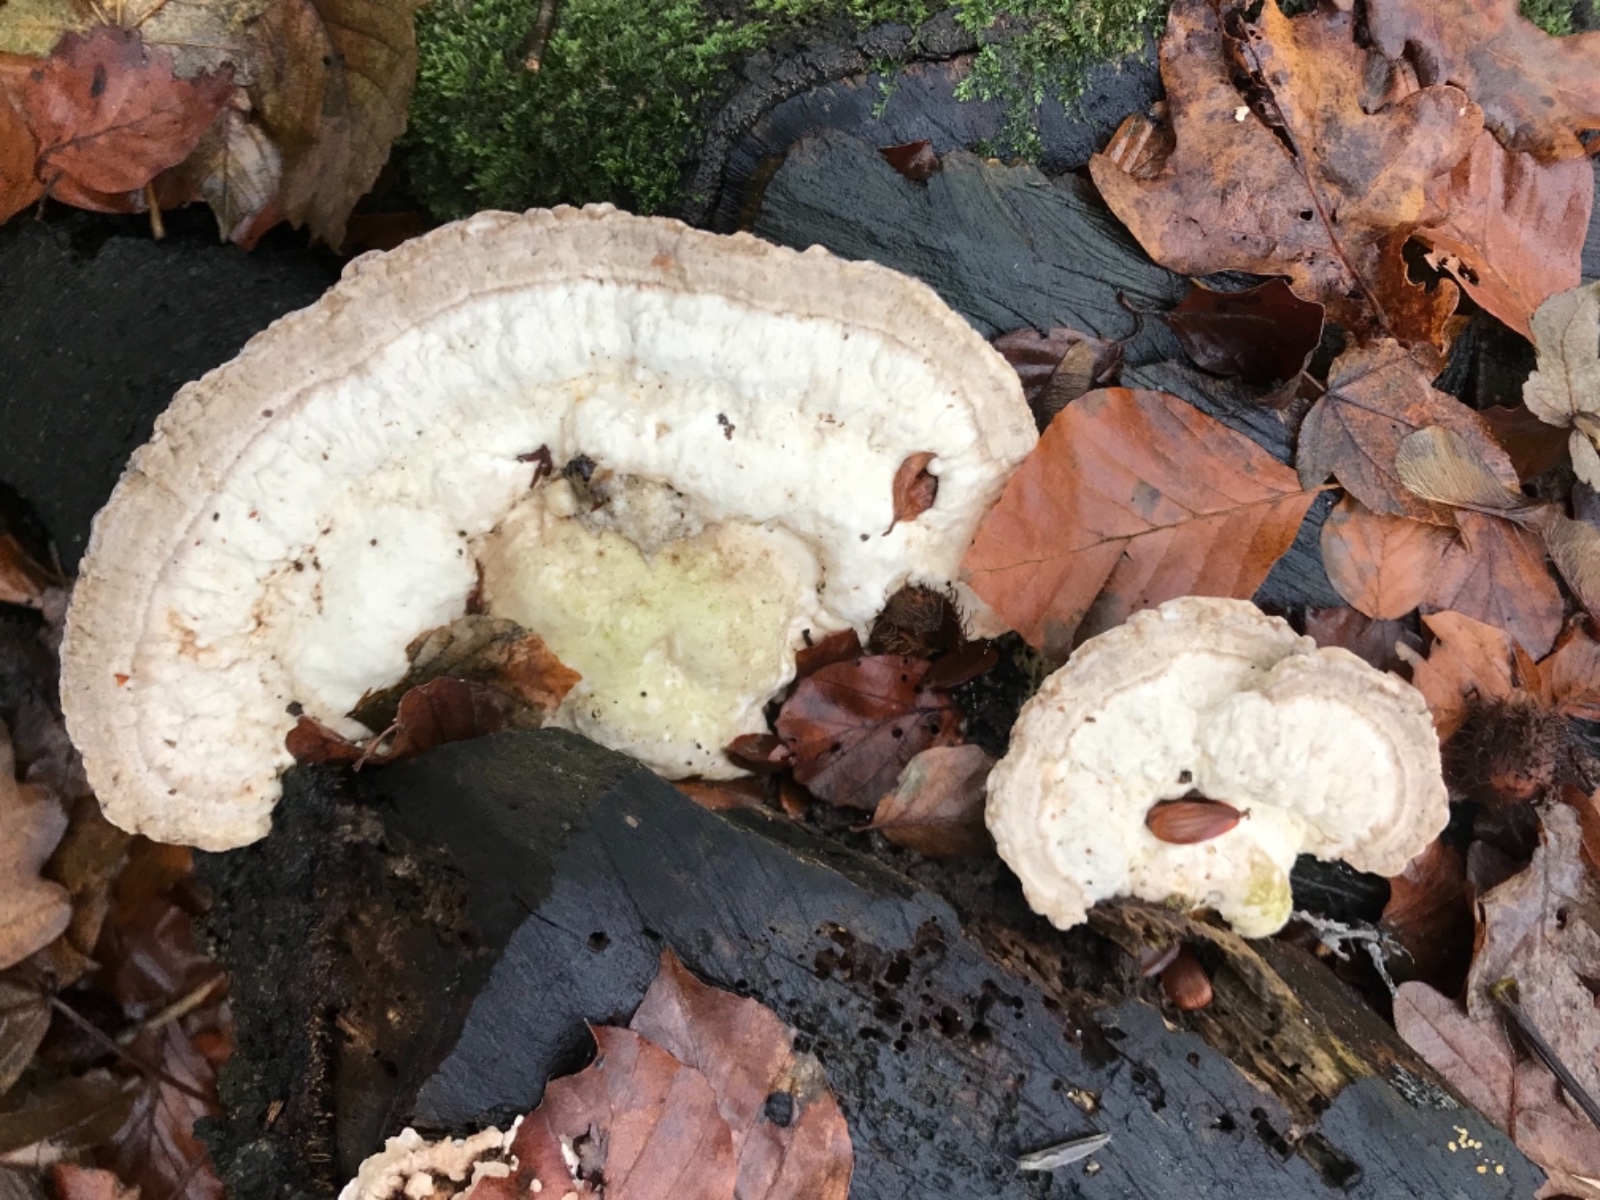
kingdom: Fungi
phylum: Basidiomycota
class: Agaricomycetes
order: Polyporales
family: Polyporaceae
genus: Trametes
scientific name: Trametes gibbosa
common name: puklet læderporesvamp
